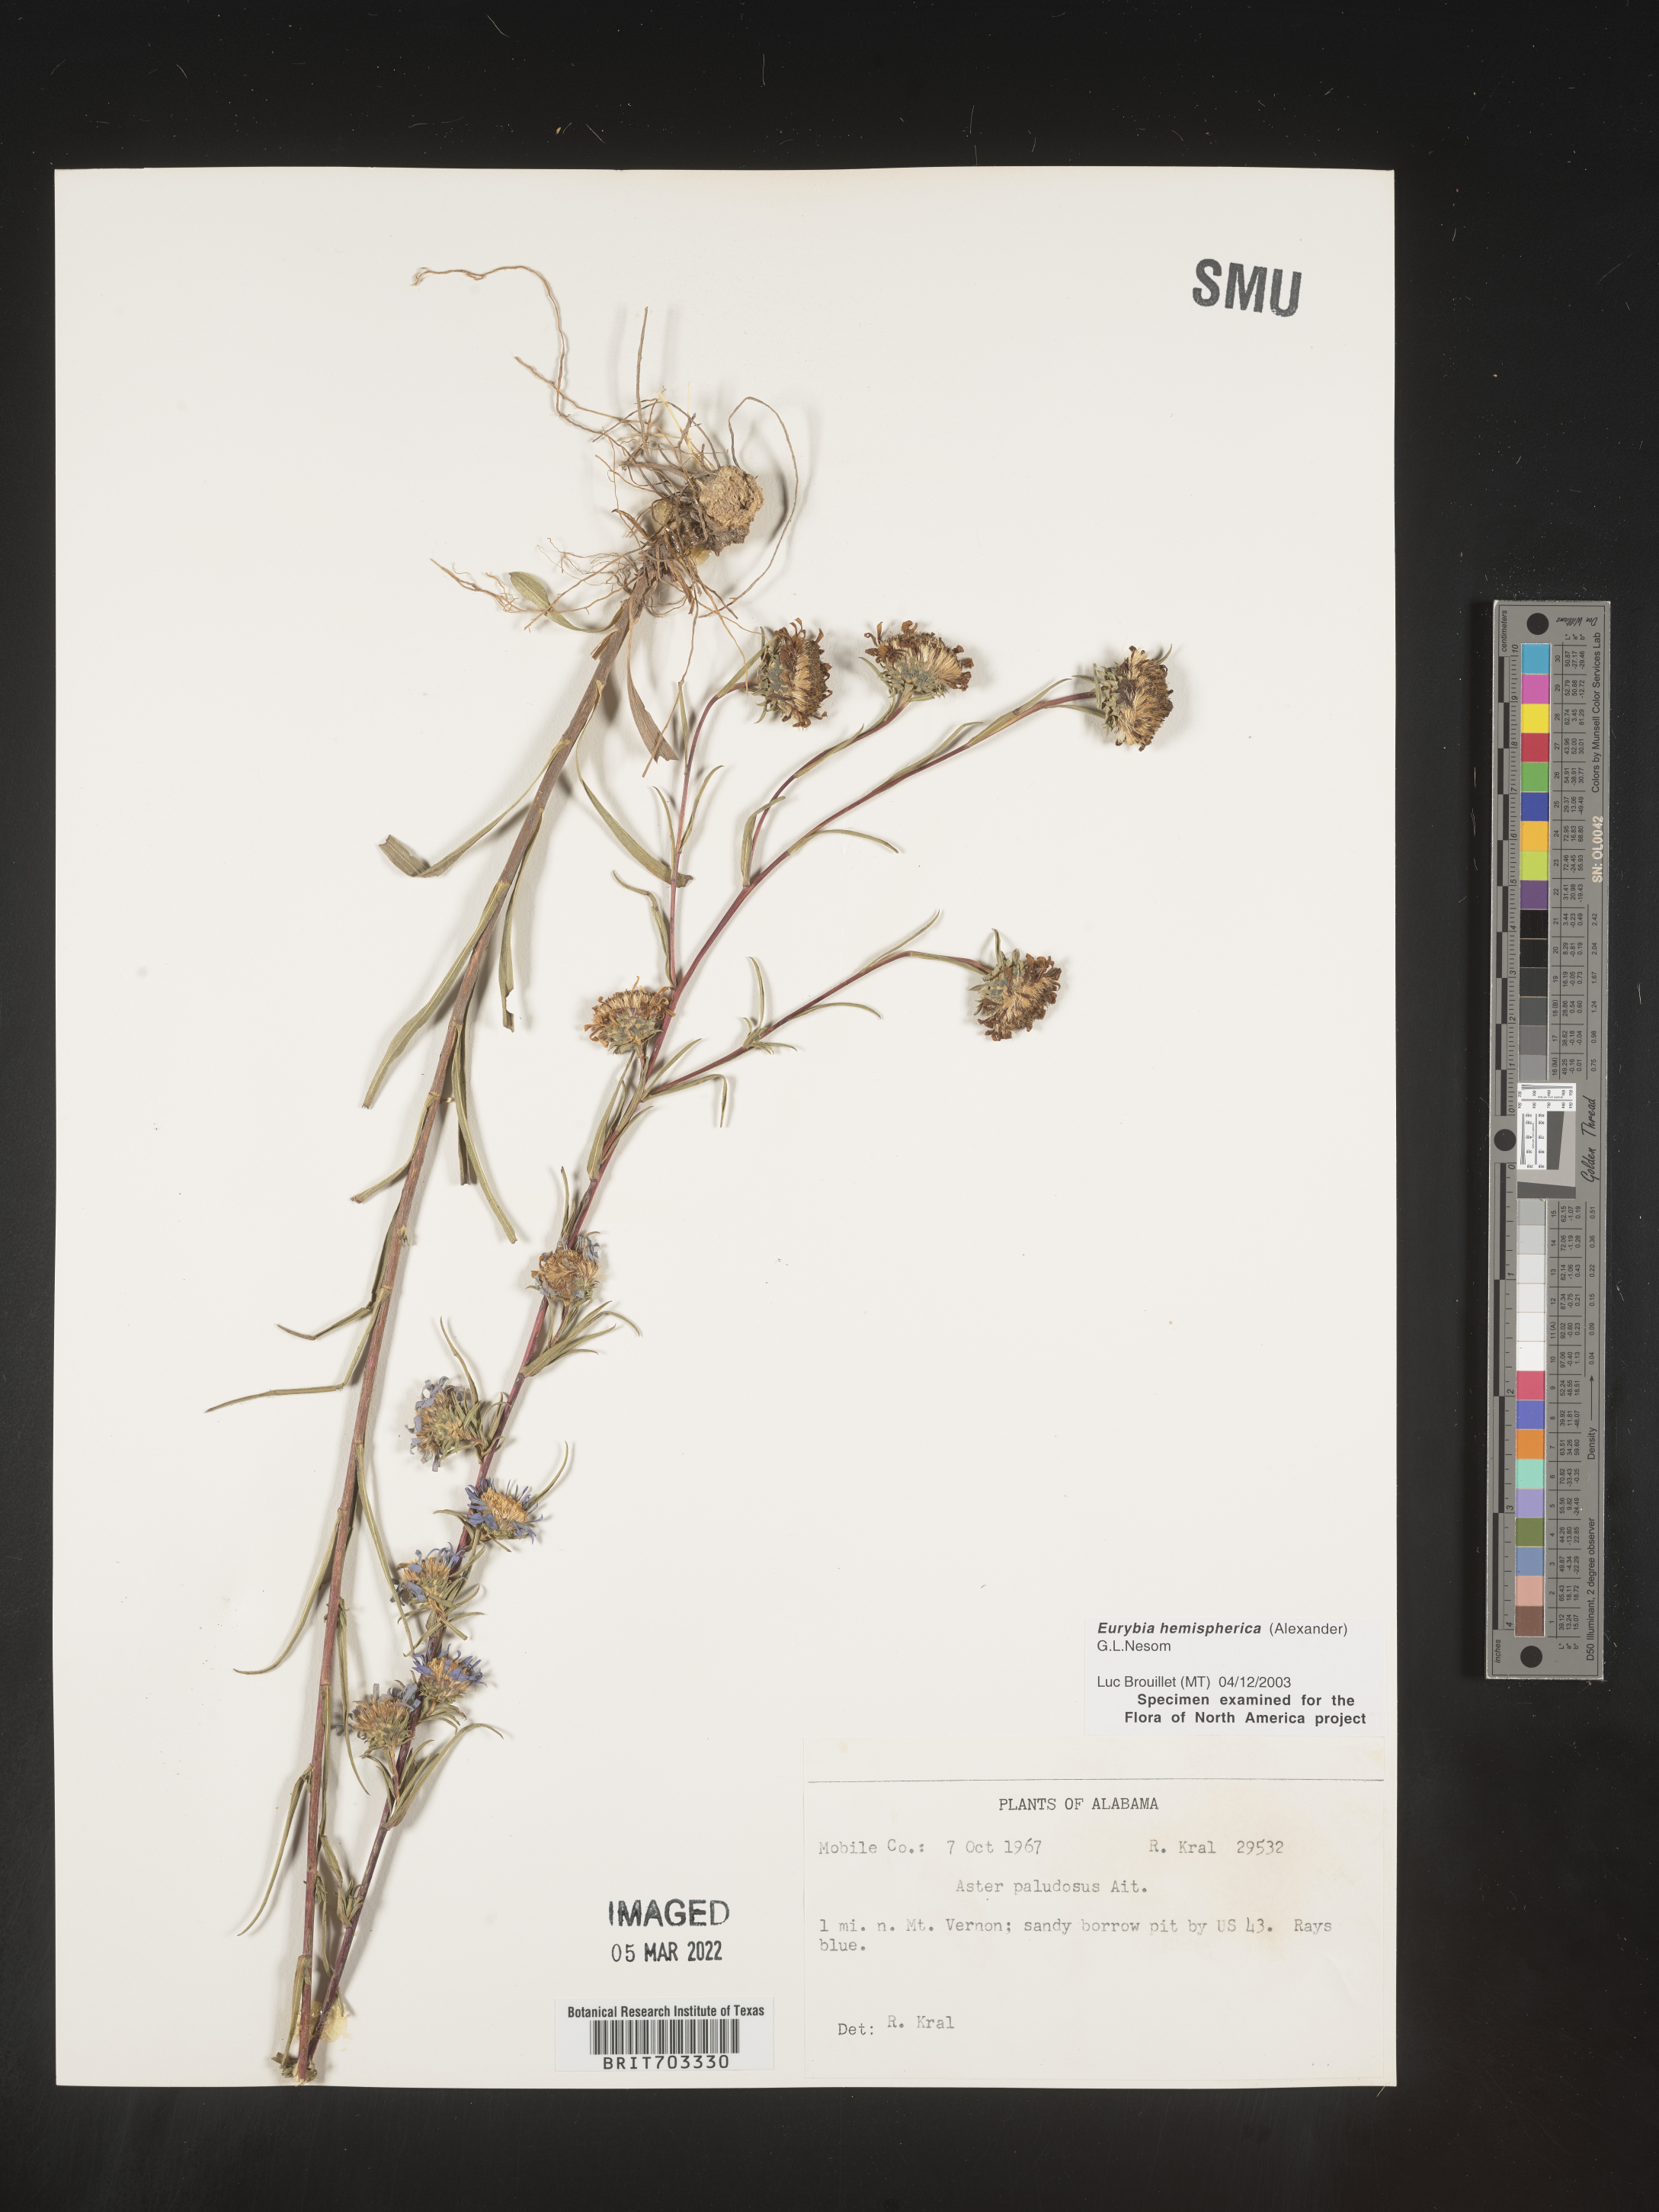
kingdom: Plantae
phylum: Tracheophyta
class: Magnoliopsida
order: Asterales
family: Asteraceae
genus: Eurybia
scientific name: Eurybia hemispherica
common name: Showy aster
